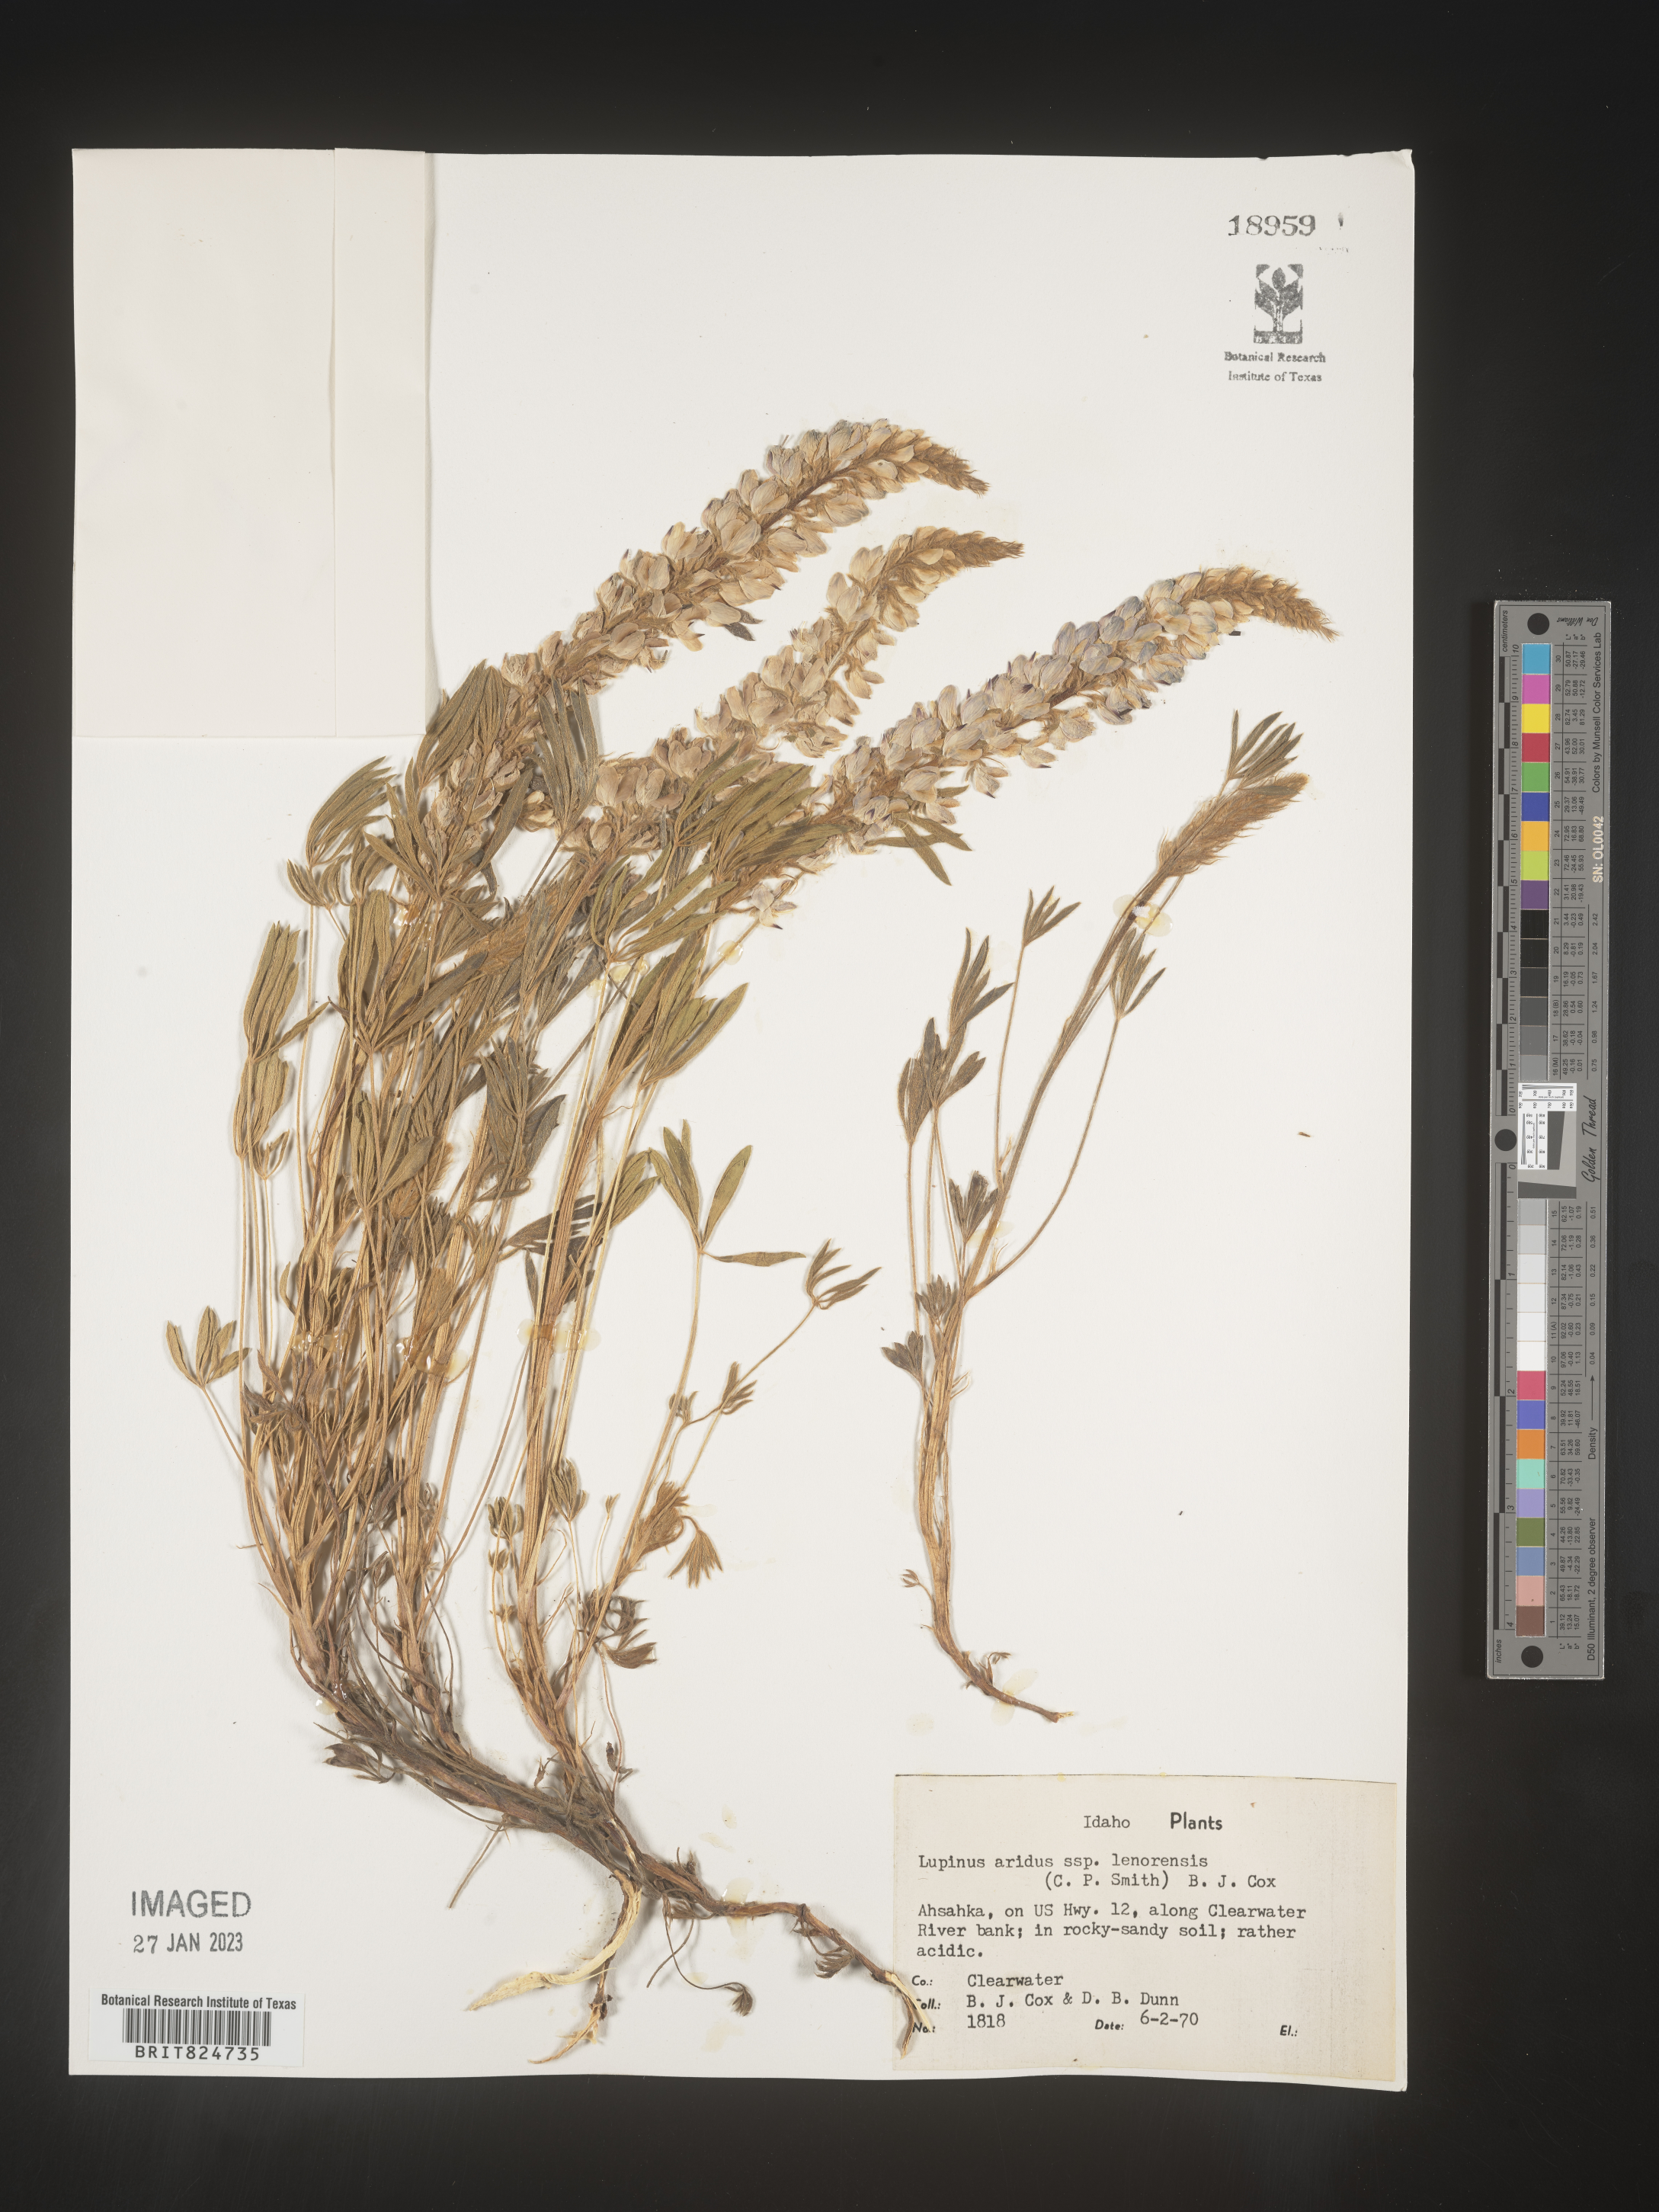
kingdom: Plantae
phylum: Tracheophyta
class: Magnoliopsida
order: Fabales
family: Fabaceae
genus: Lupinus
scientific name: Lupinus aridus
